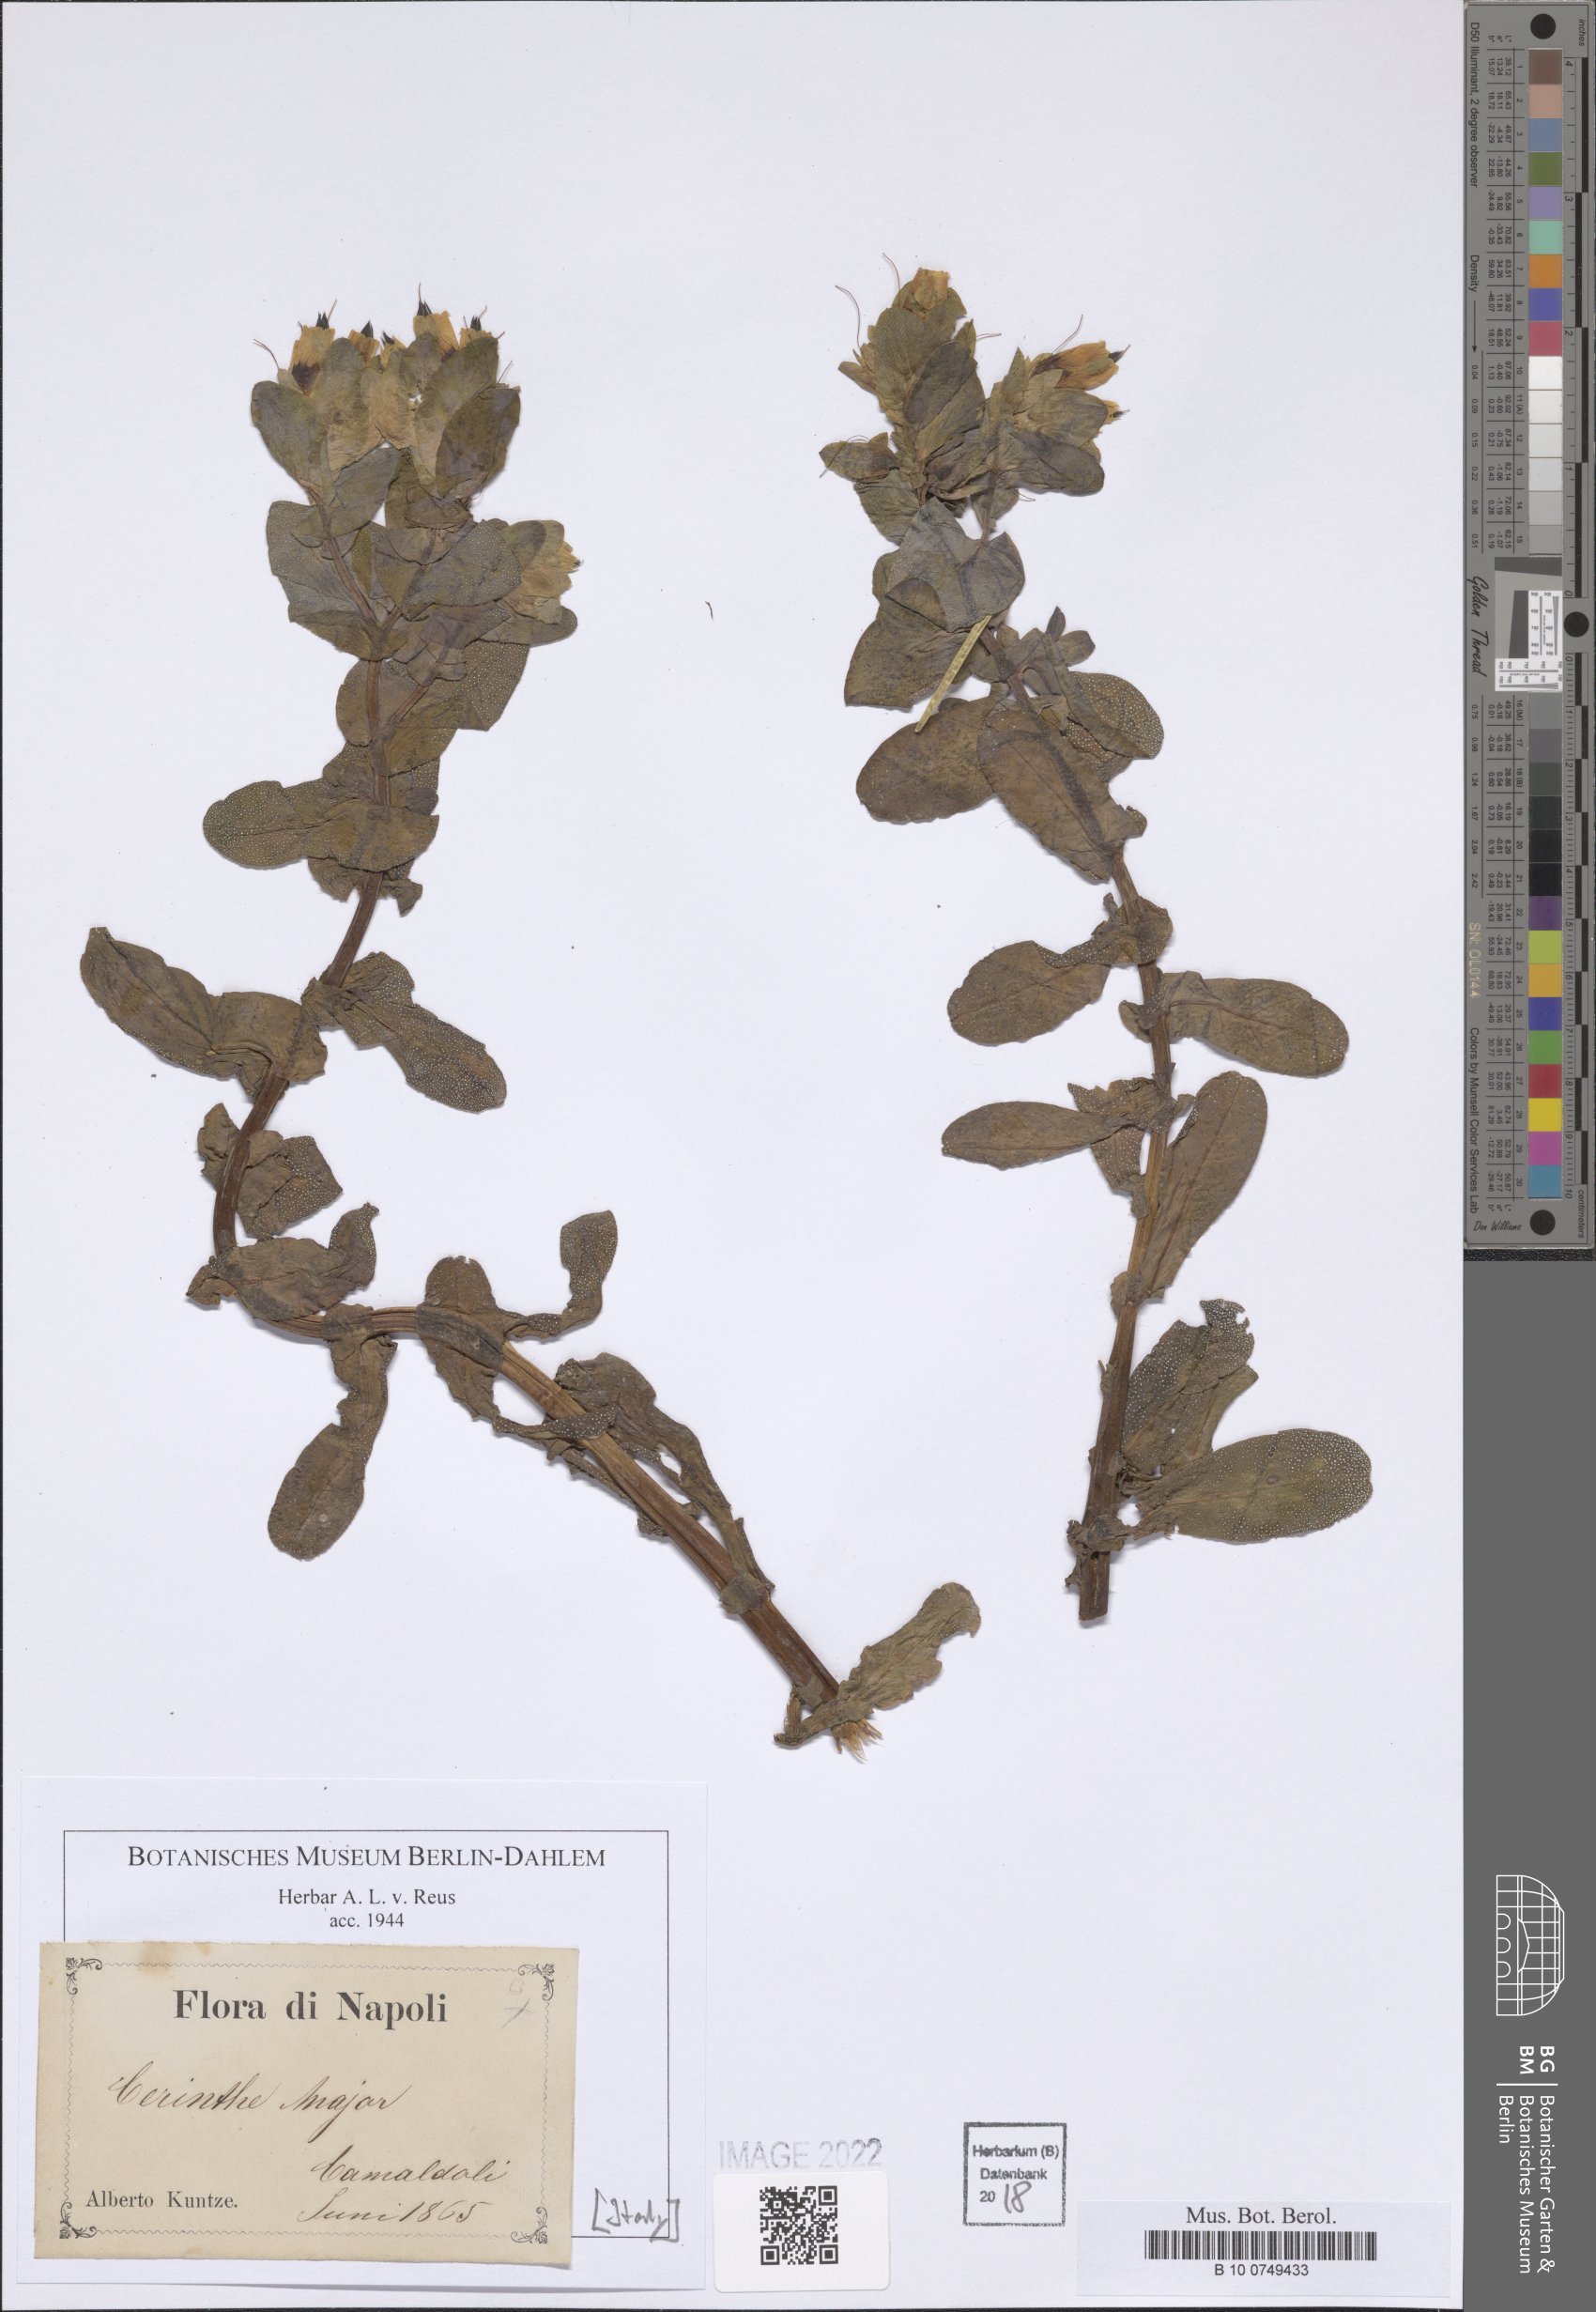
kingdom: Plantae
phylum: Tracheophyta
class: Magnoliopsida
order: Boraginales
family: Boraginaceae
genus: Cerinthe
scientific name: Cerinthe major
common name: Greater honeywort
